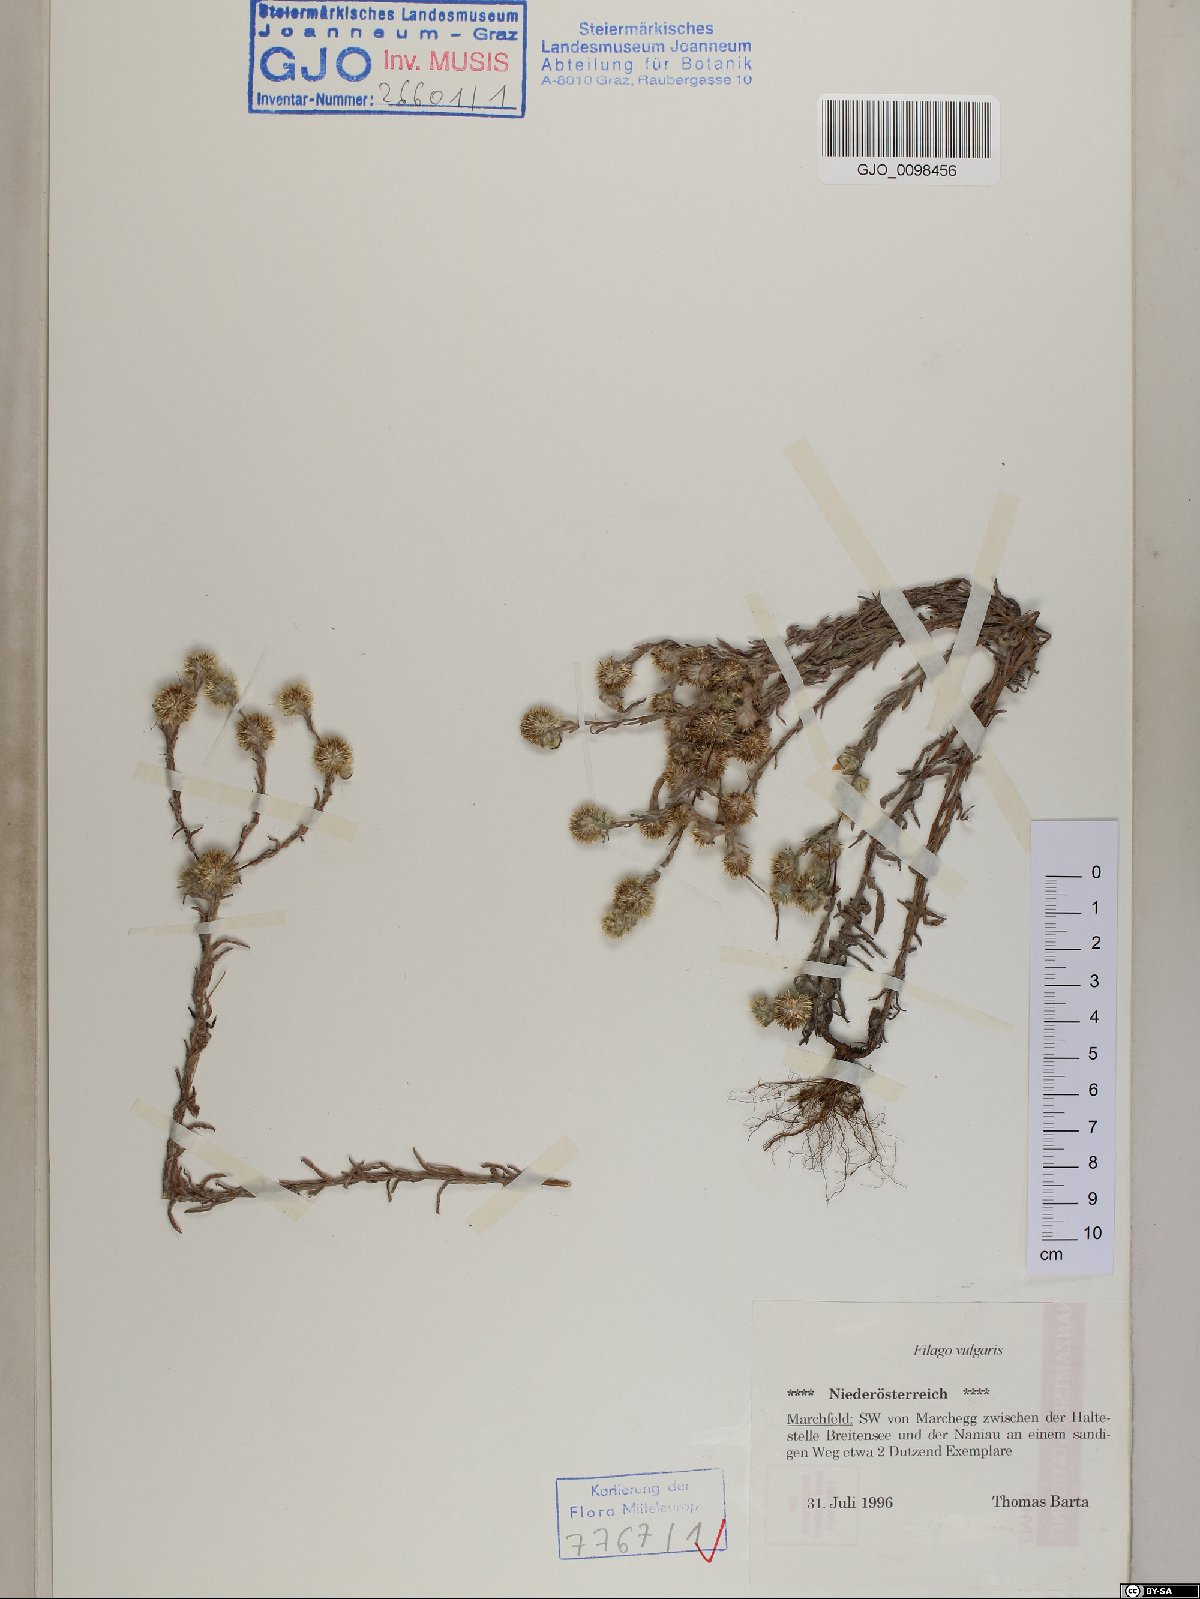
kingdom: Plantae
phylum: Tracheophyta
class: Magnoliopsida
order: Asterales
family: Asteraceae
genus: Filago
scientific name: Filago germanica
